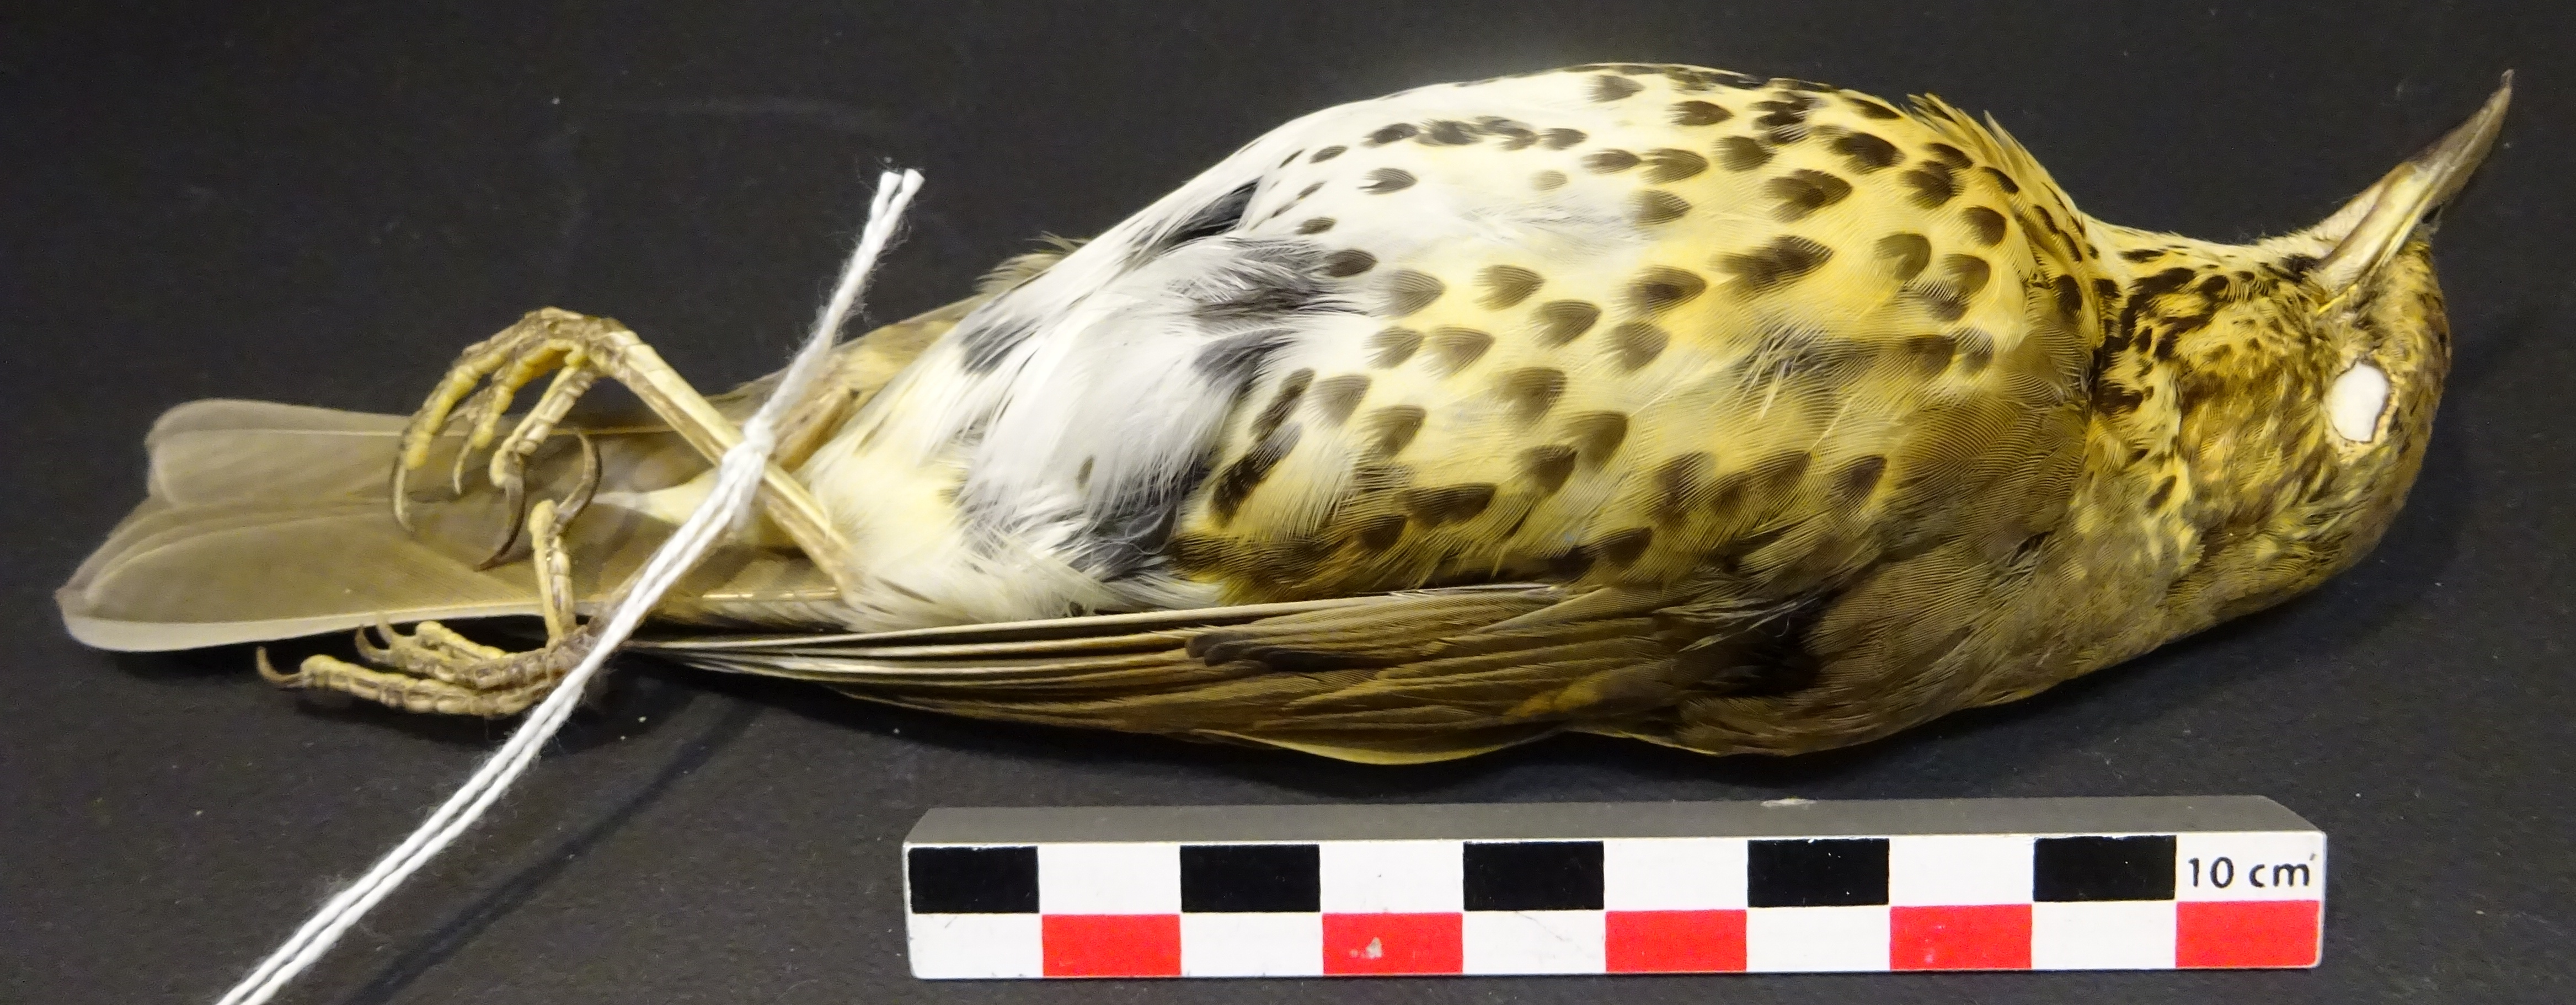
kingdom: Animalia
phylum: Chordata
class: Aves
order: Passeriformes
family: Turdidae
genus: Turdus
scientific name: Turdus philomelos
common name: Song thrush
